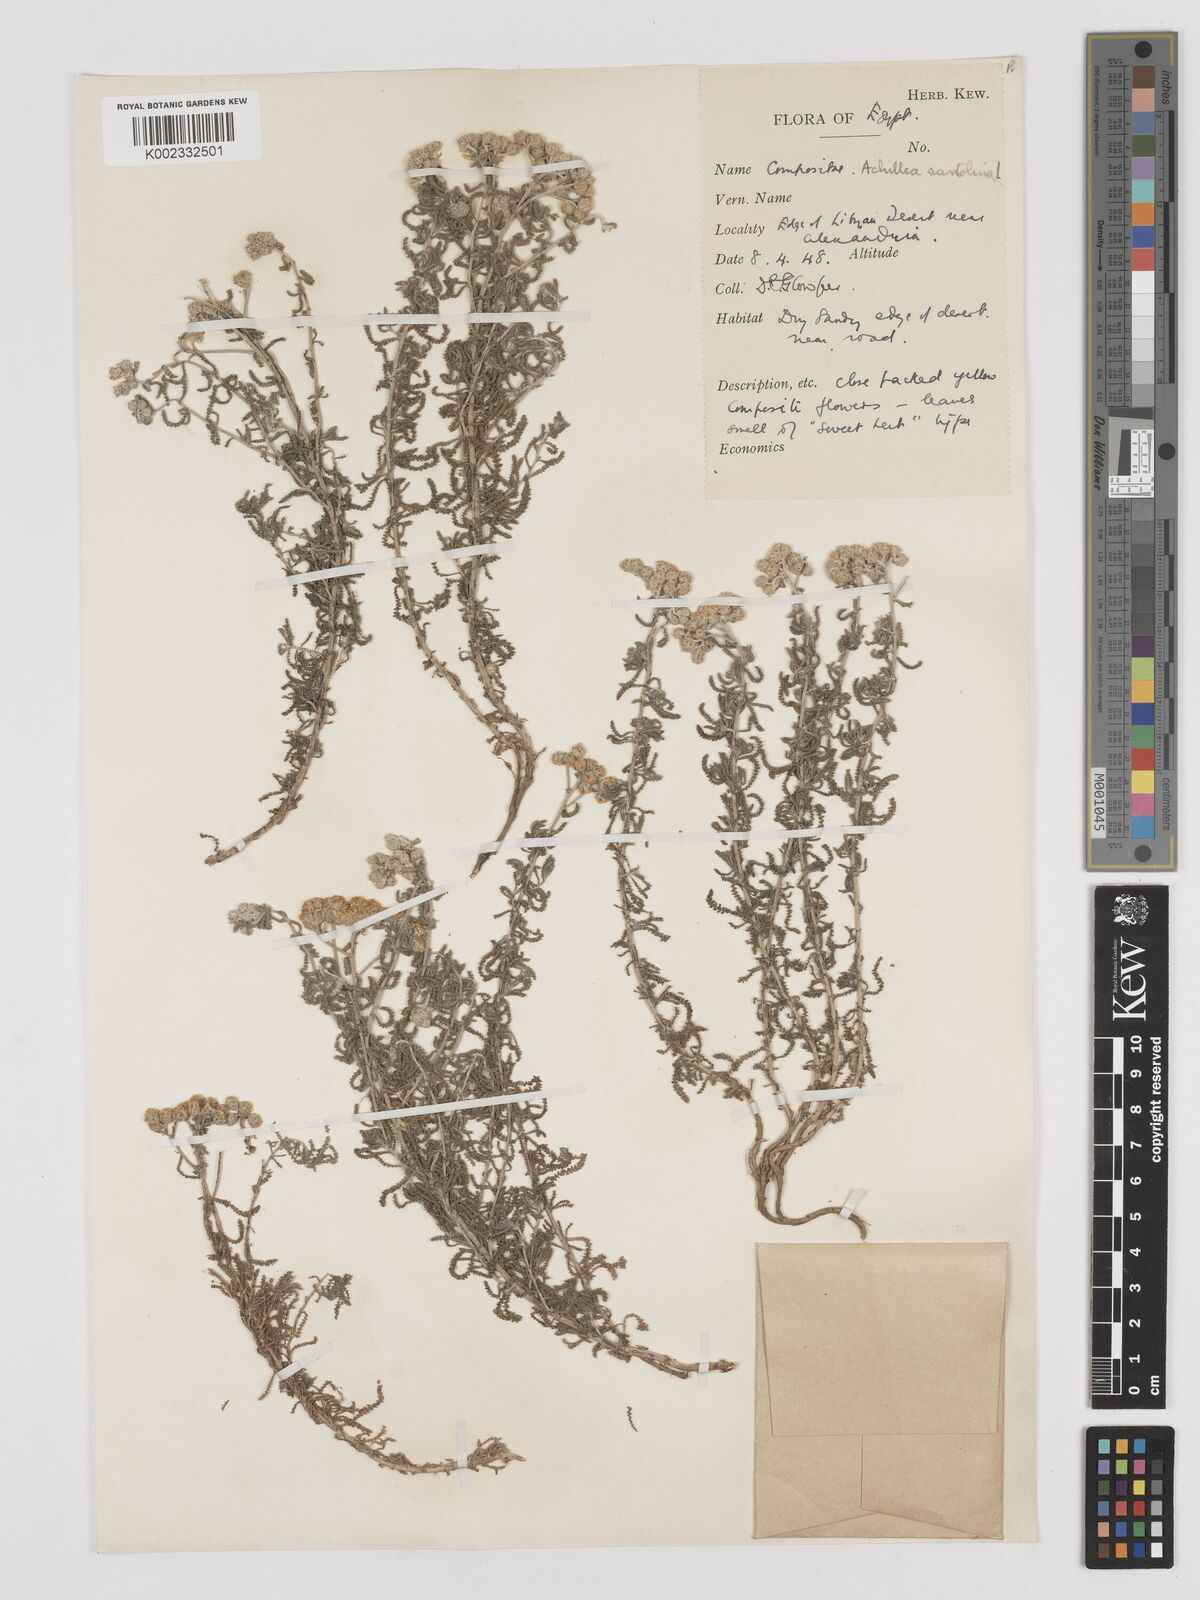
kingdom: Plantae
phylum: Tracheophyta
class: Magnoliopsida
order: Asterales
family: Asteraceae
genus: Achillea
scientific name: Achillea tenuifolia
